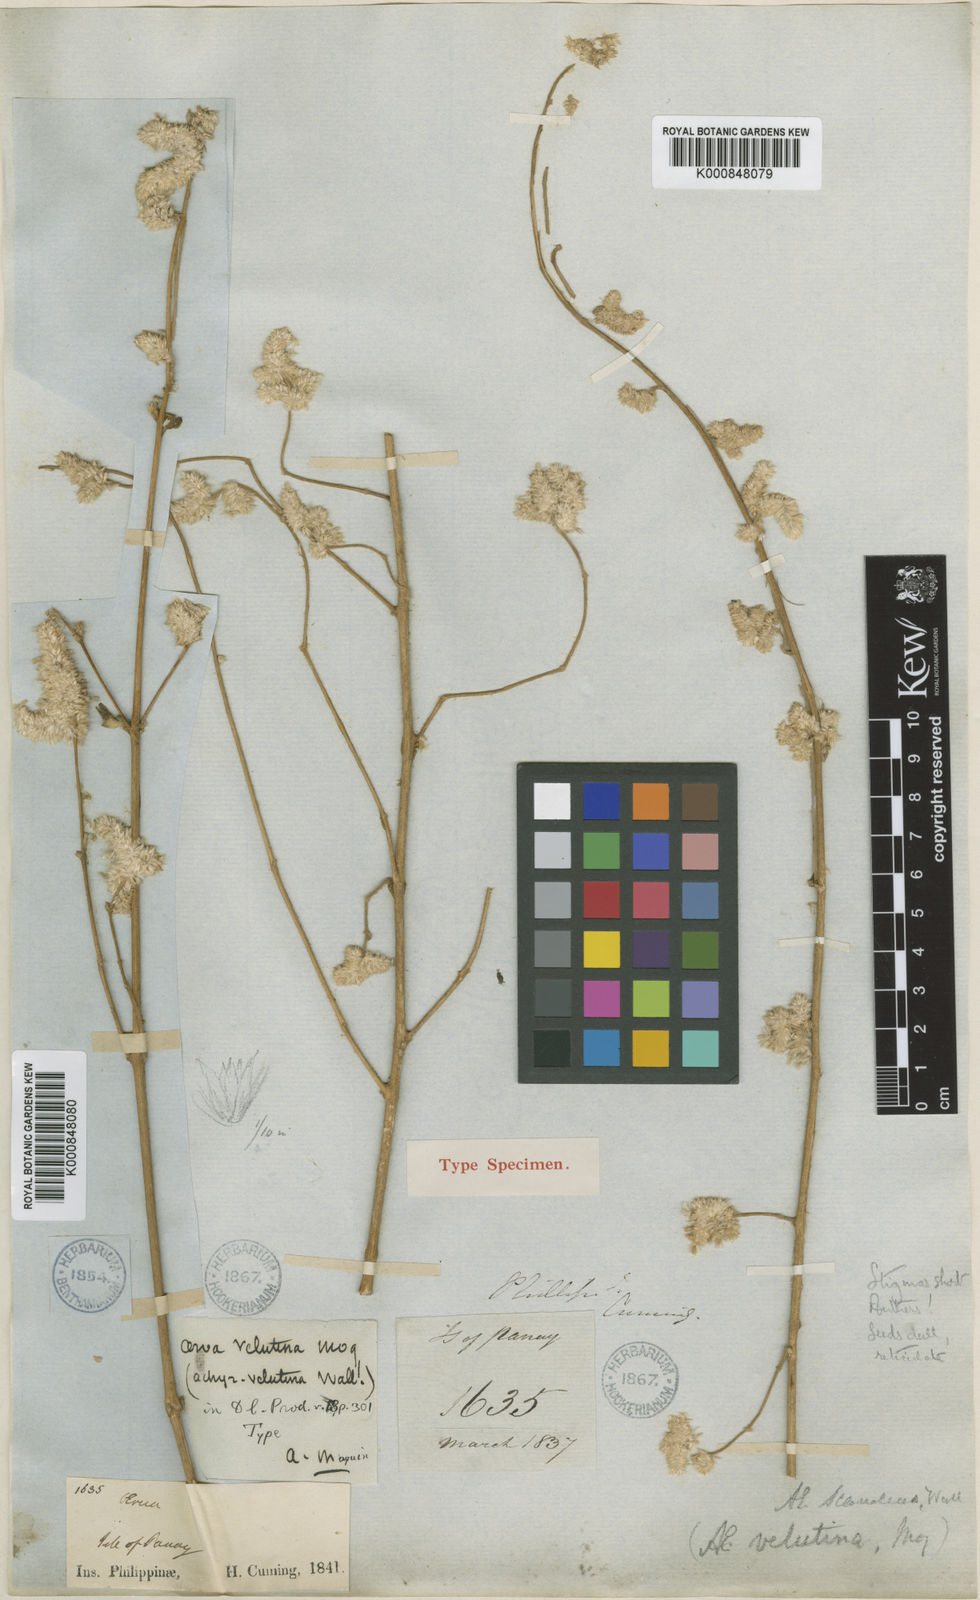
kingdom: Plantae
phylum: Tracheophyta
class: Magnoliopsida
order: Caryophyllales
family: Amaranthaceae
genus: Ouret
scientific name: Ouret sanguinolenta
